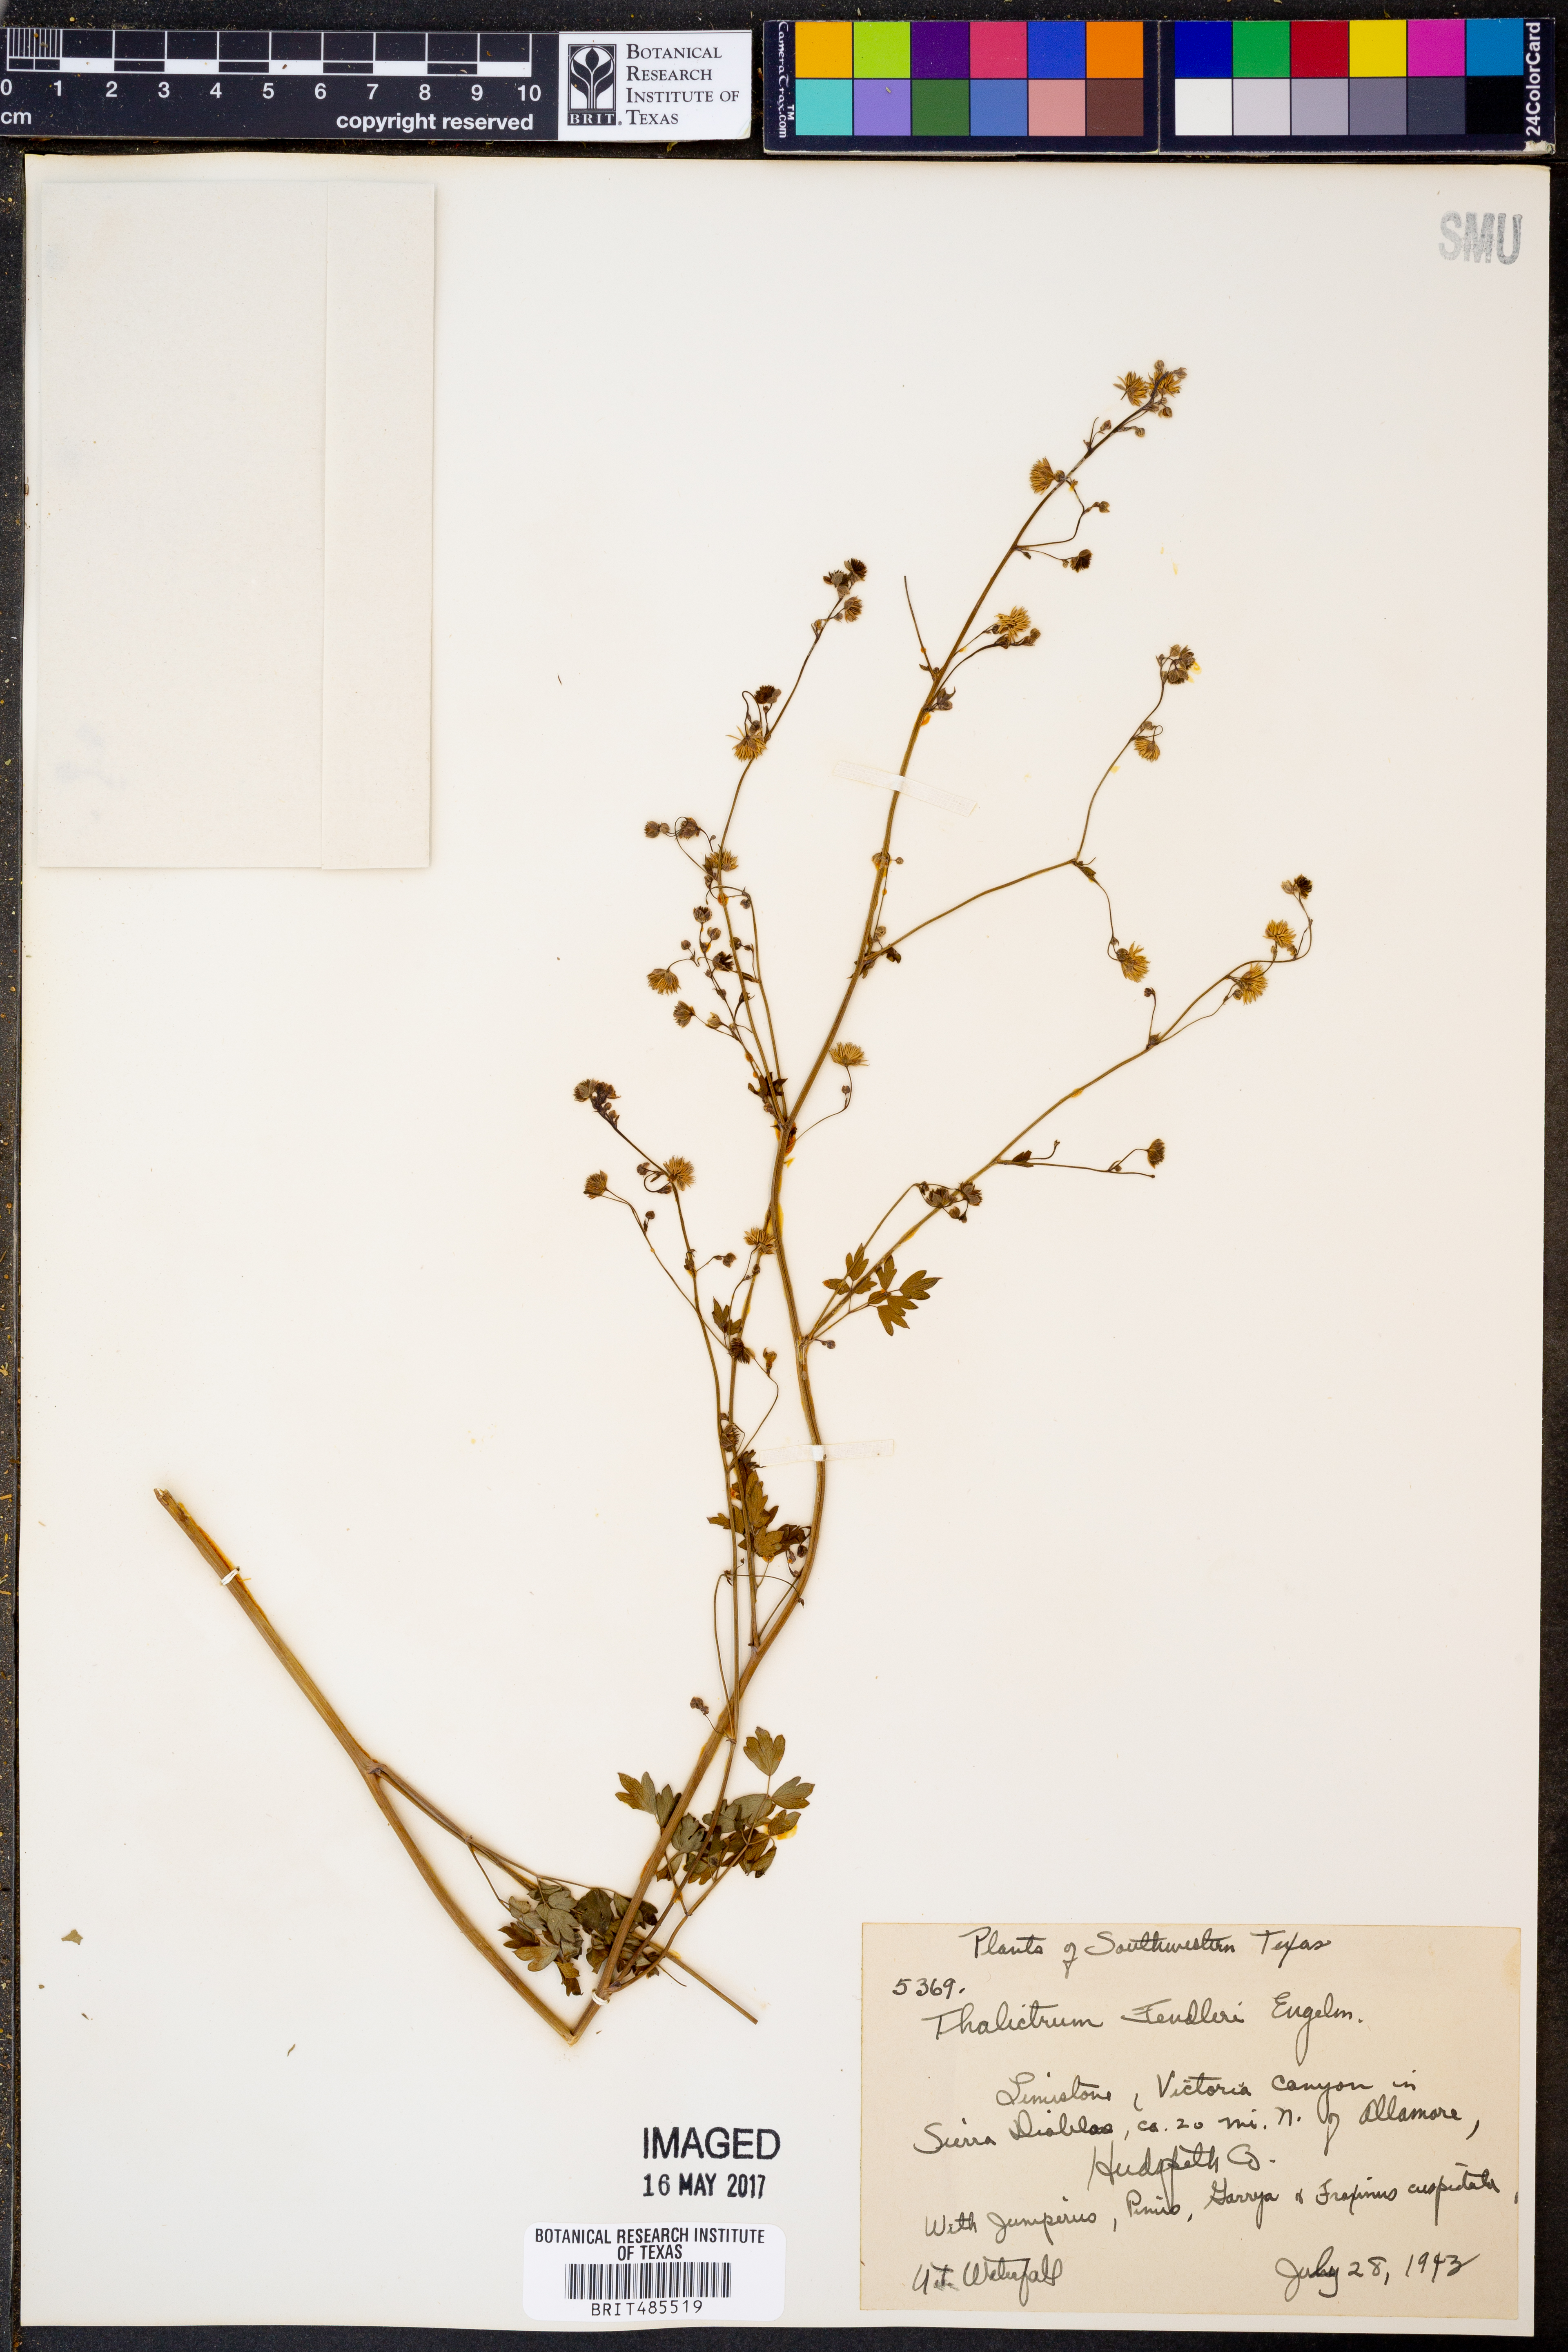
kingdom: Plantae
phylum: Tracheophyta
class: Magnoliopsida
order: Ranunculales
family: Ranunculaceae
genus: Thalictrum
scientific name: Thalictrum fendleri
